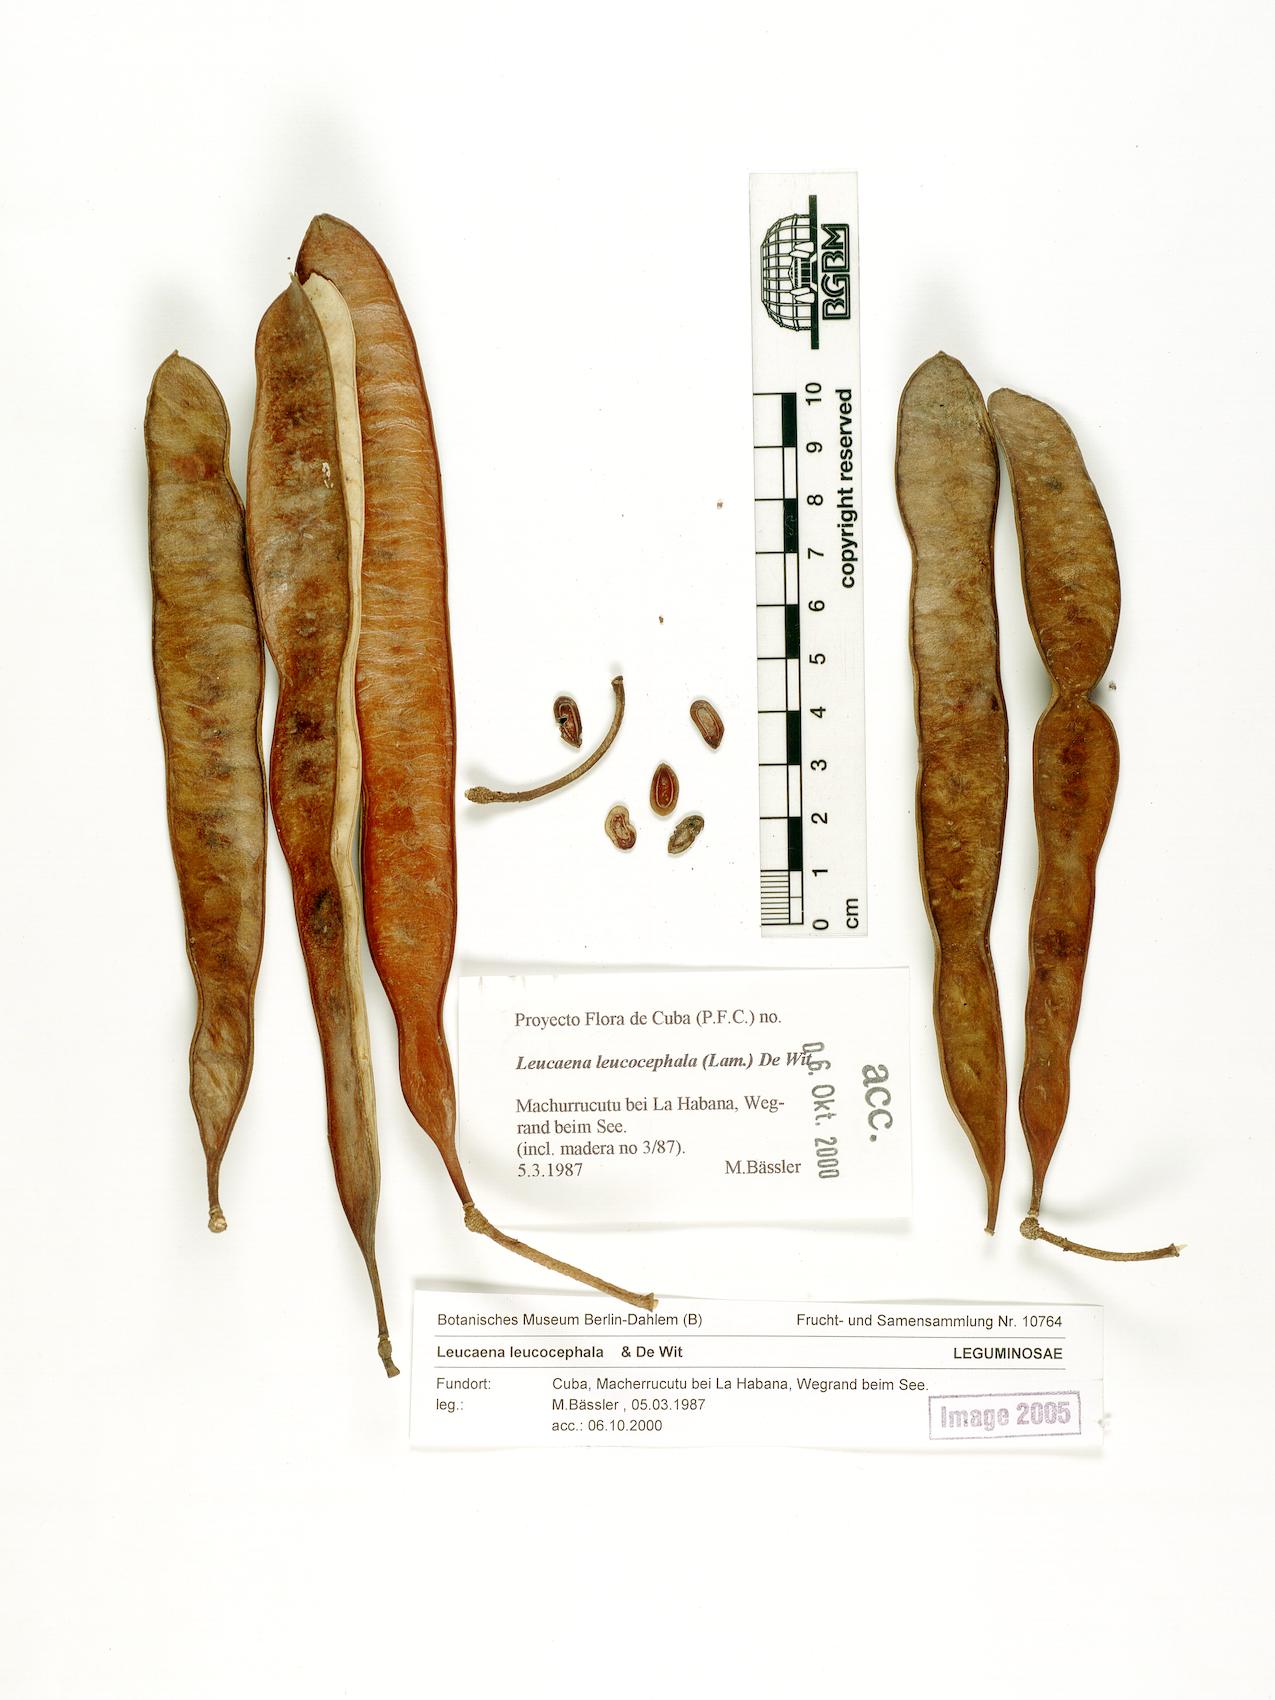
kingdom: Plantae
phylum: Tracheophyta
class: Magnoliopsida
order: Fabales
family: Fabaceae
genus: Leucaena
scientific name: Leucaena leucocephala
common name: White leadtree
